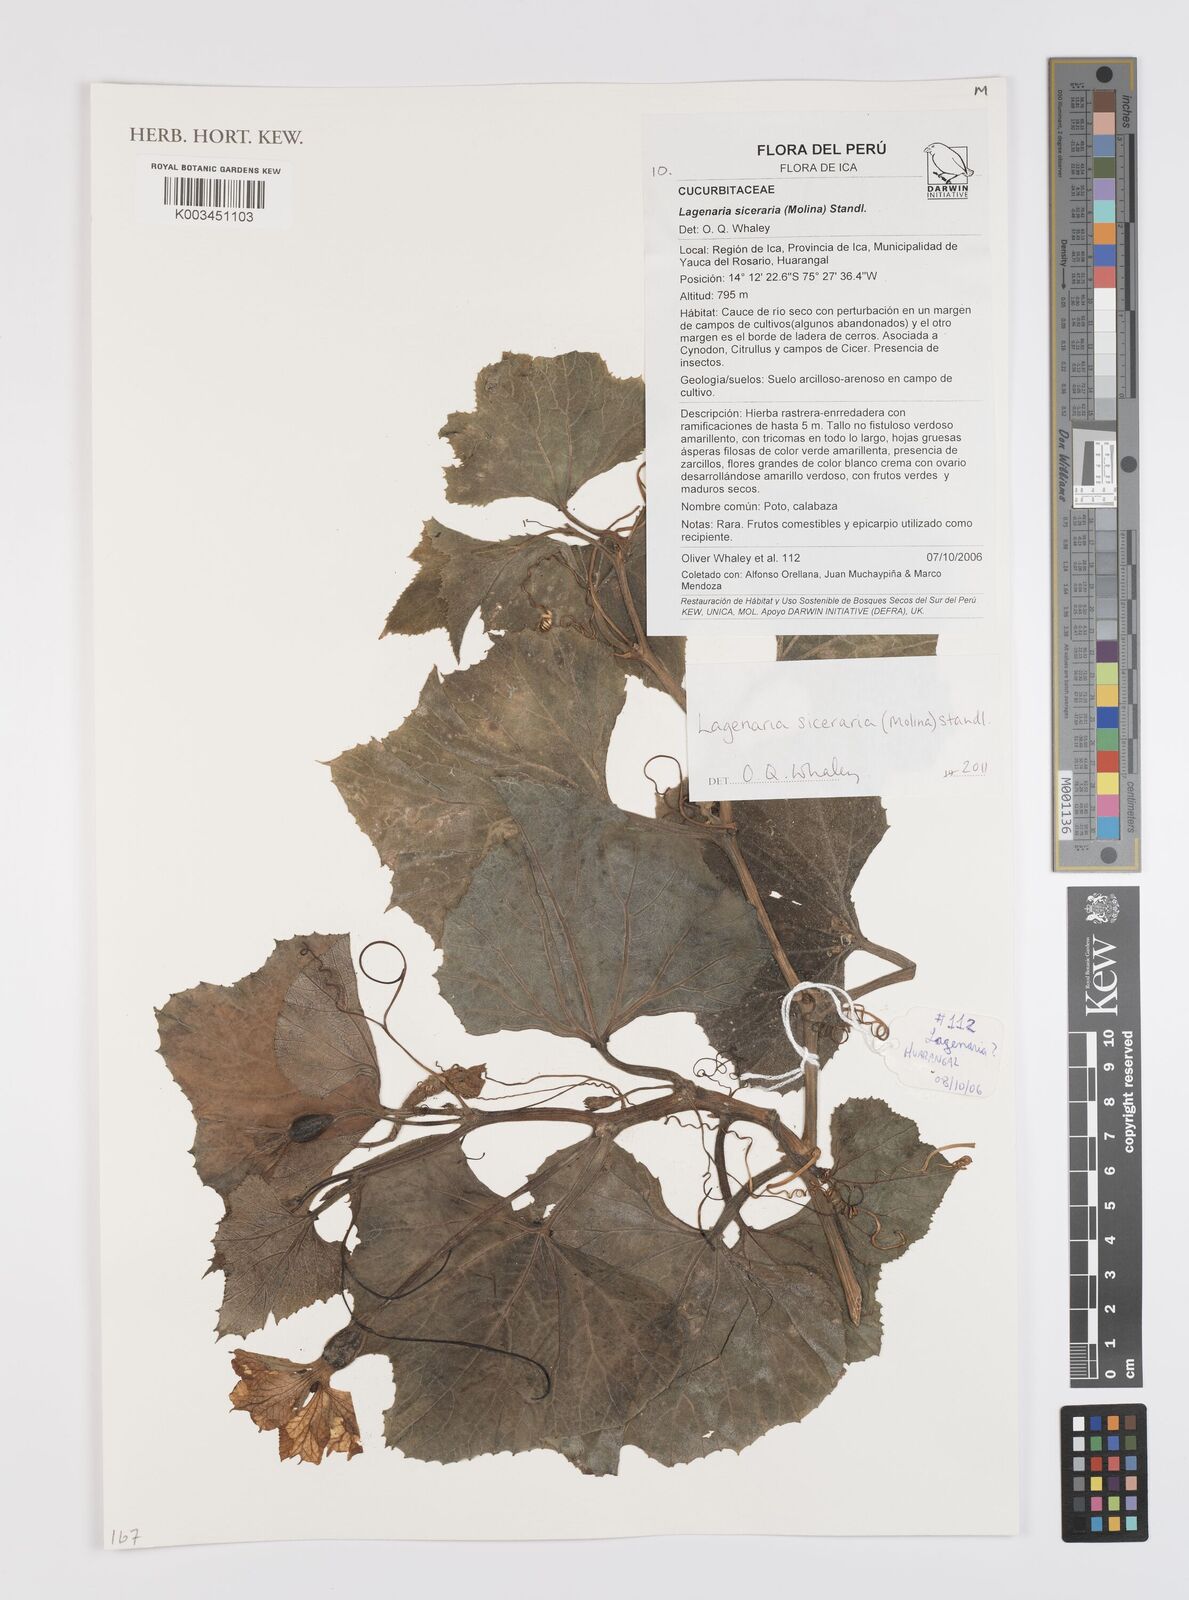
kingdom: Plantae
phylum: Tracheophyta
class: Magnoliopsida
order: Cucurbitales
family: Cucurbitaceae
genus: Lagenaria
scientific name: Lagenaria siceraria
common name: Bottle gourd
